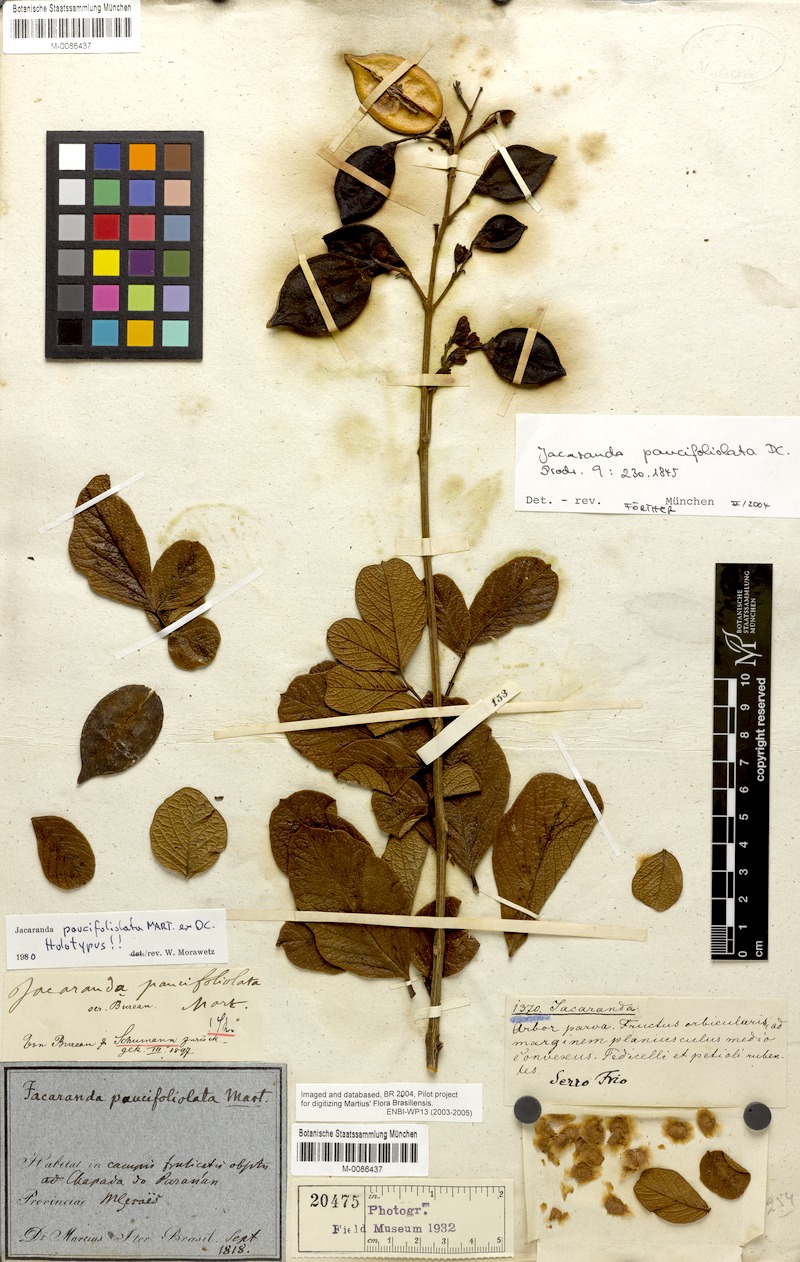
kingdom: Plantae
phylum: Tracheophyta
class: Magnoliopsida
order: Lamiales
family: Bignoniaceae
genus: Jacaranda
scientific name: Jacaranda paucifoliolata
